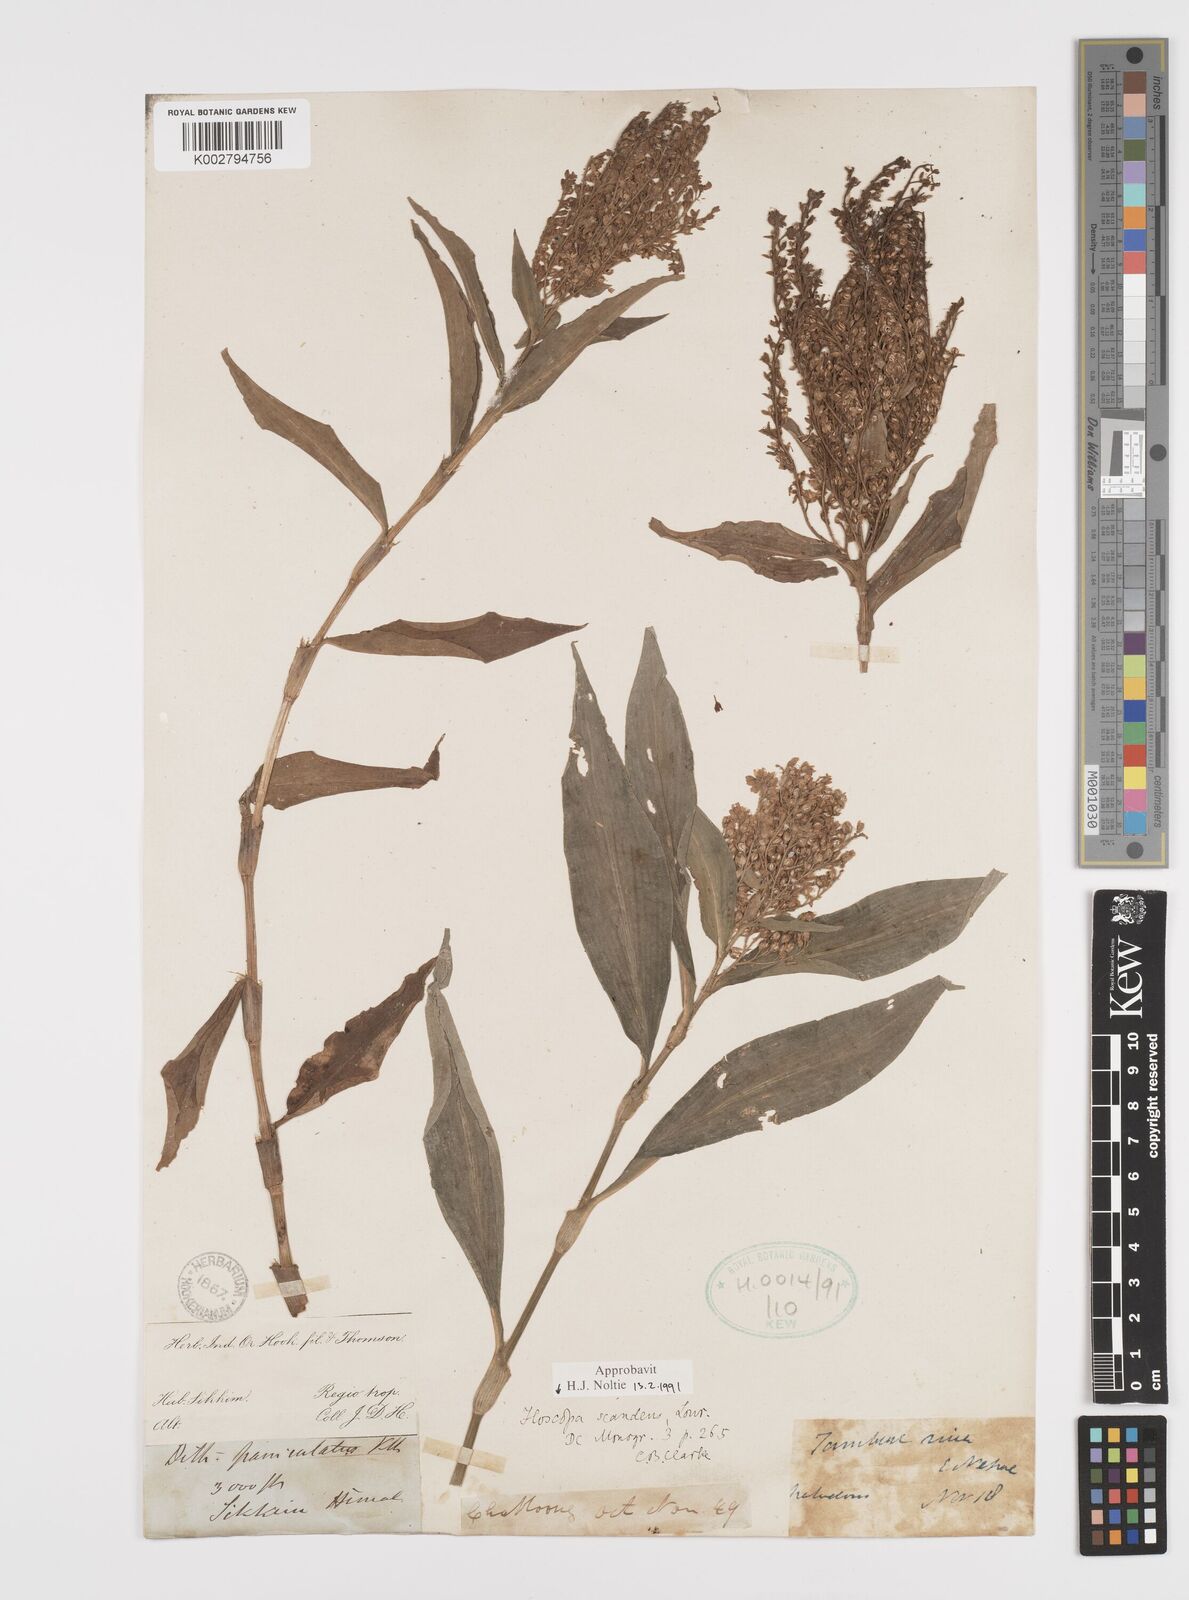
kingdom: Plantae
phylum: Tracheophyta
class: Liliopsida
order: Commelinales
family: Commelinaceae
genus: Floscopa
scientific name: Floscopa scandens
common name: Climbing flower cup
